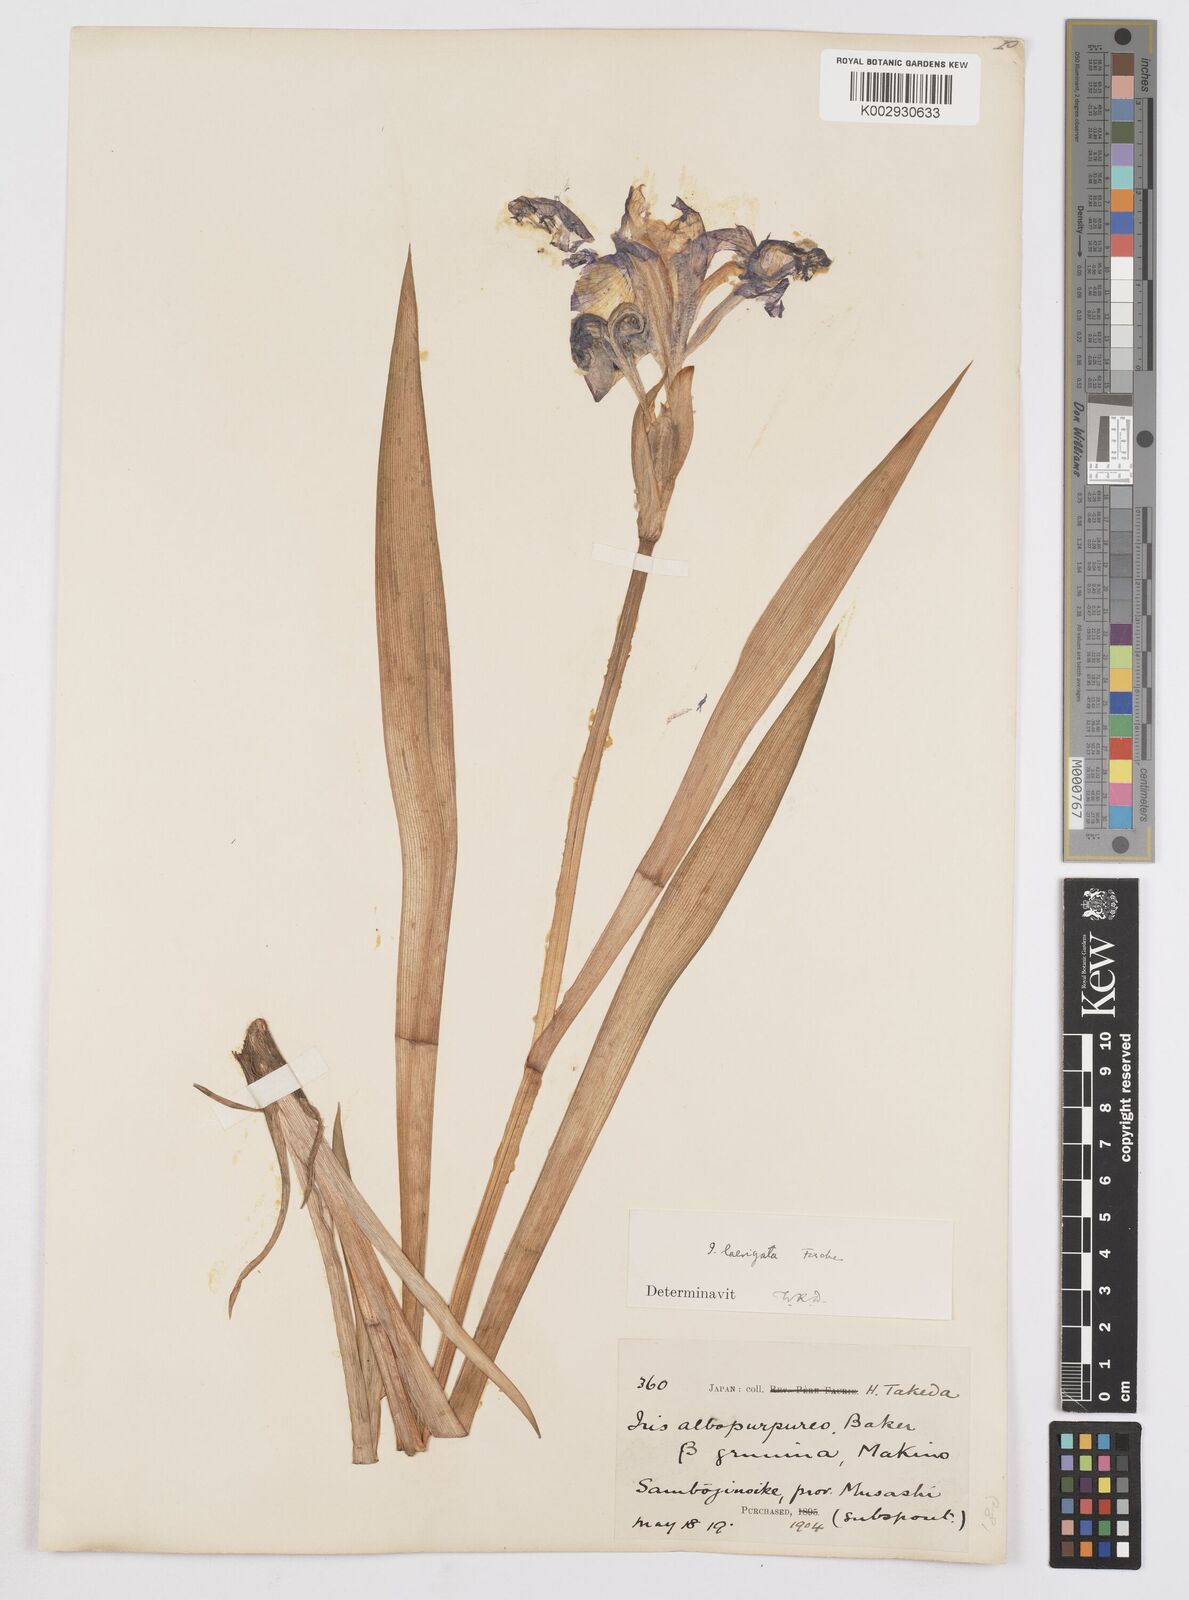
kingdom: Plantae
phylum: Tracheophyta
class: Liliopsida
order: Asparagales
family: Iridaceae
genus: Iris
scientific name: Iris laevigata
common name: Japanese iris
